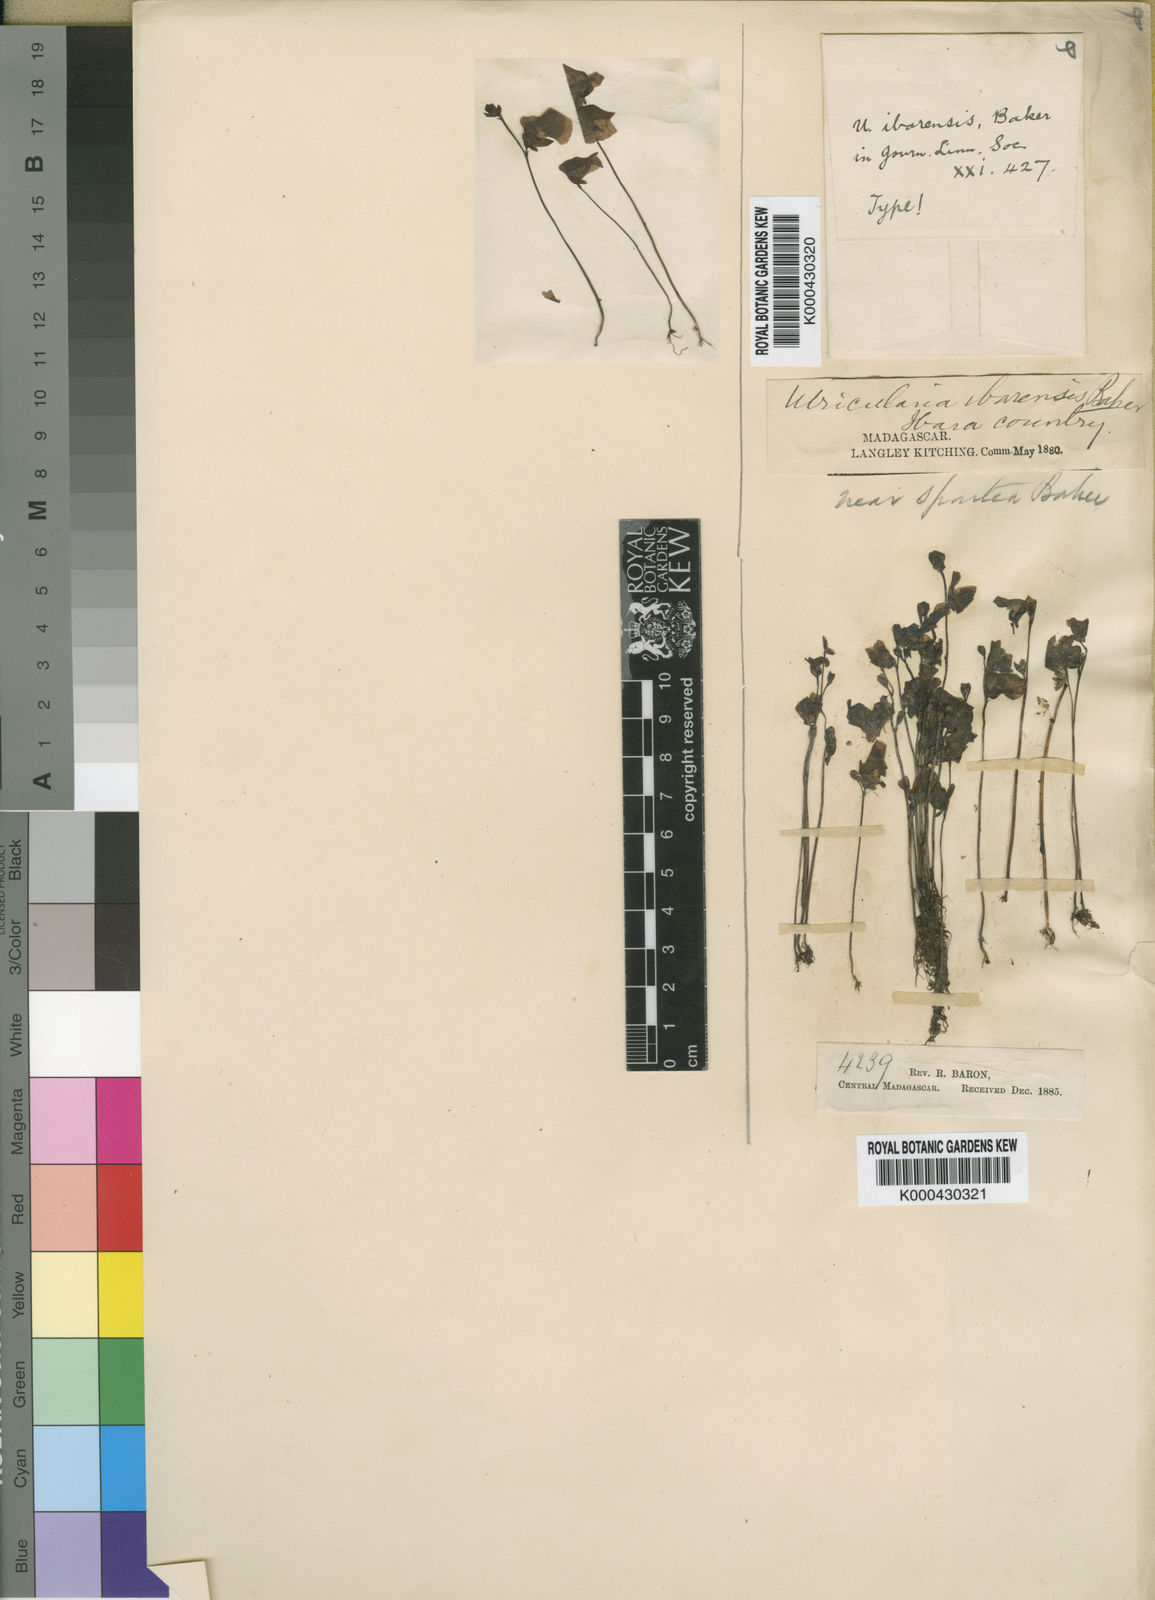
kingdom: Plantae
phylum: Tracheophyta
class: Magnoliopsida
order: Lamiales
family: Lentibulariaceae
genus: Utricularia
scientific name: Utricularia livida
